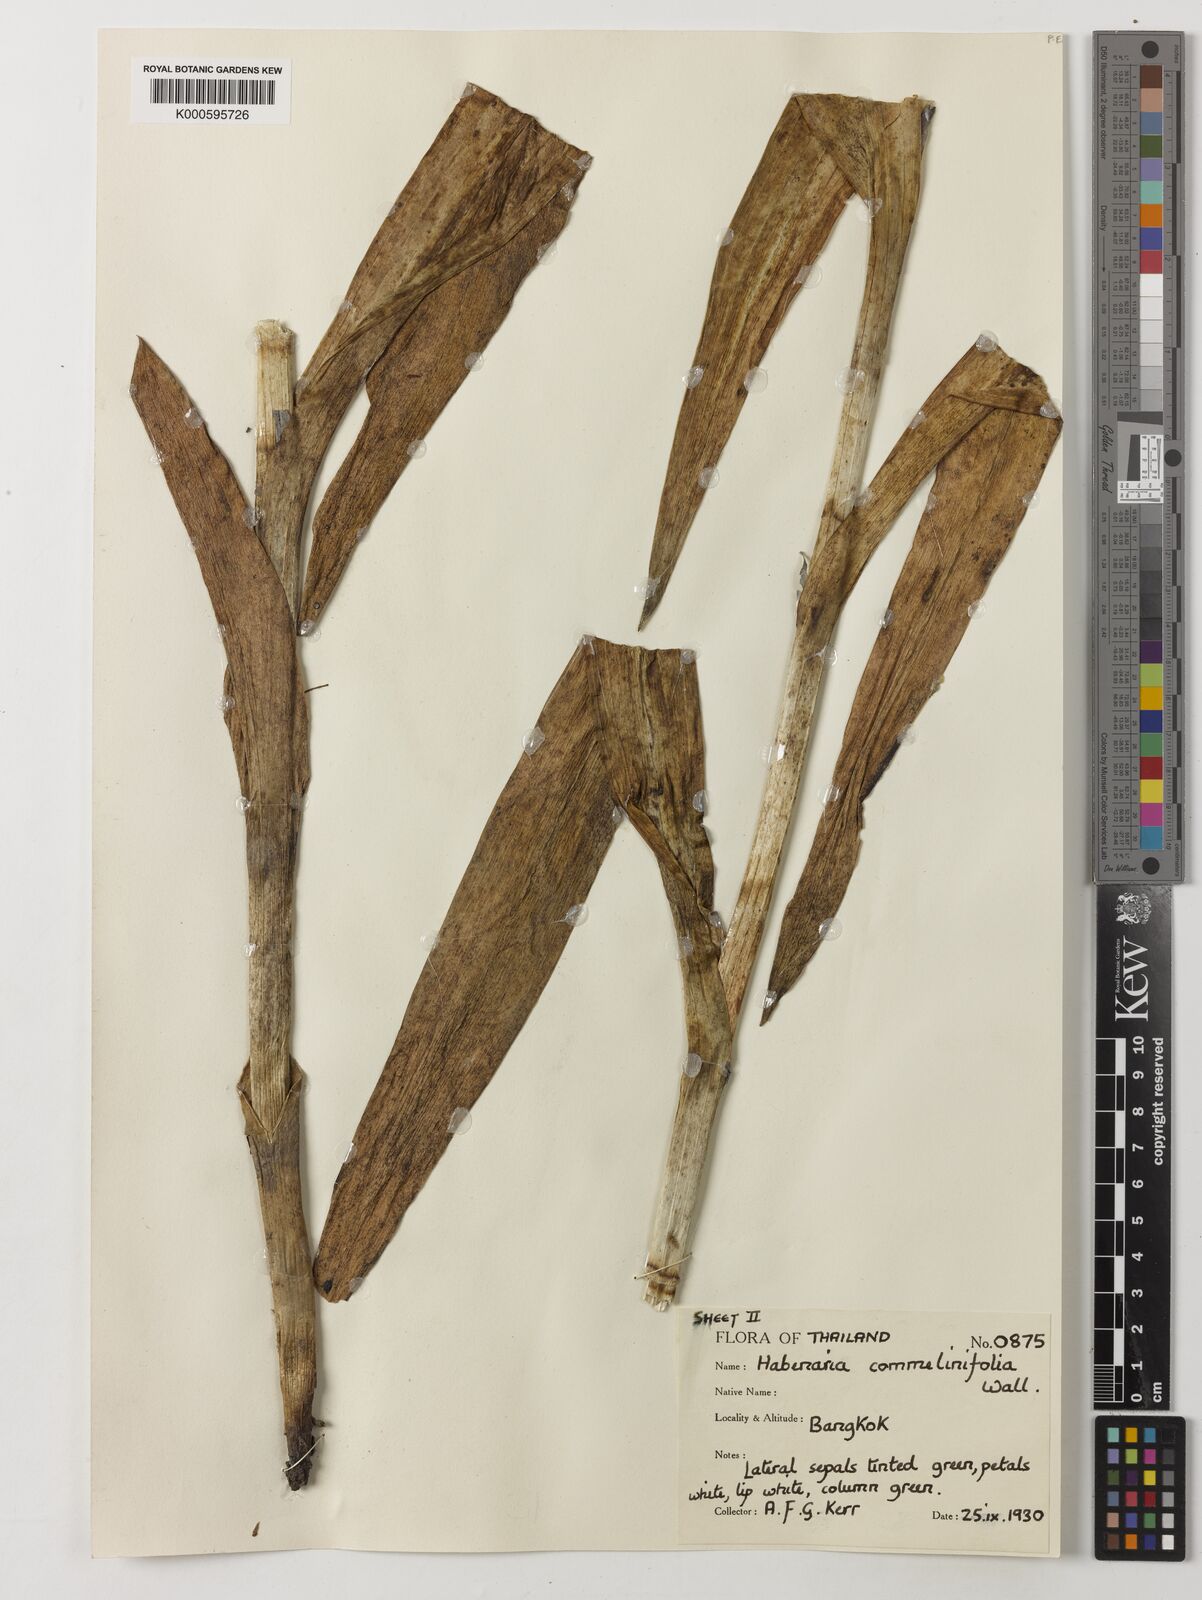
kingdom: Plantae
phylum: Tracheophyta
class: Liliopsida
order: Asparagales
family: Orchidaceae
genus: Habenaria
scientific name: Habenaria commelinifolia
